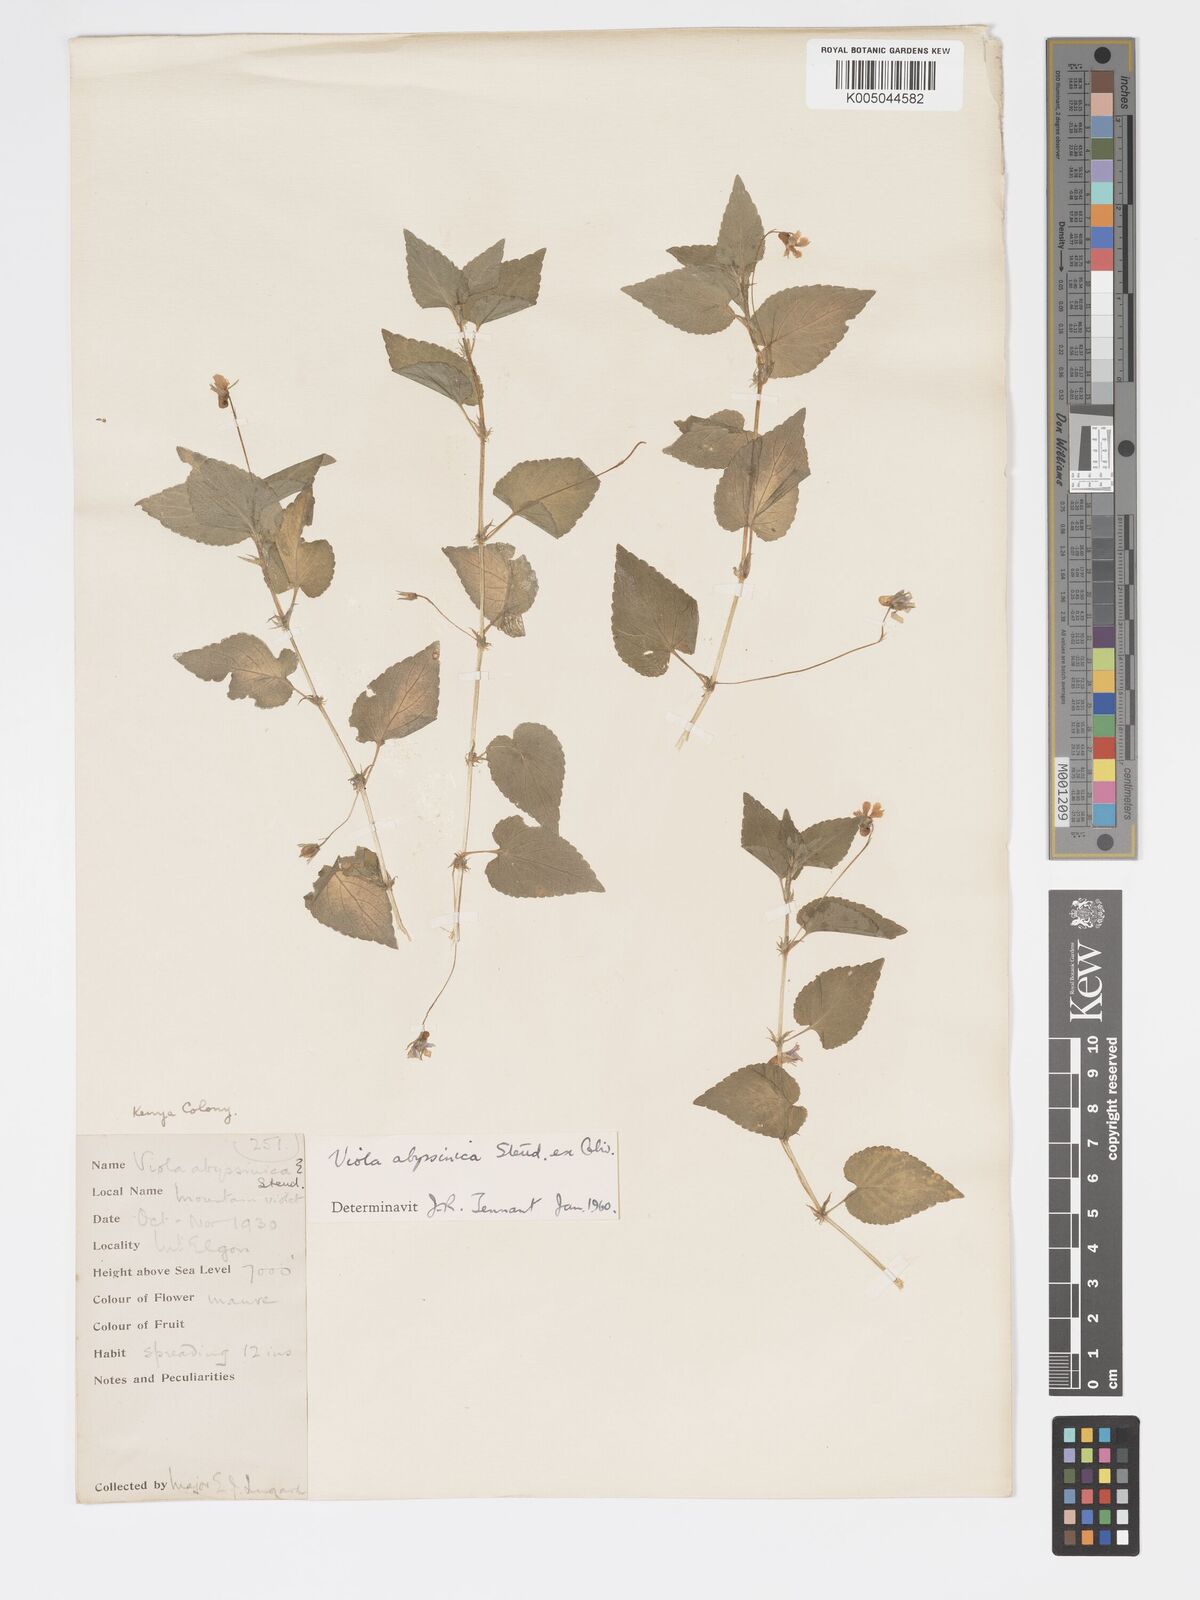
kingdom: Plantae
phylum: Tracheophyta
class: Magnoliopsida
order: Malpighiales
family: Violaceae
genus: Viola
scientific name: Viola abyssinica
